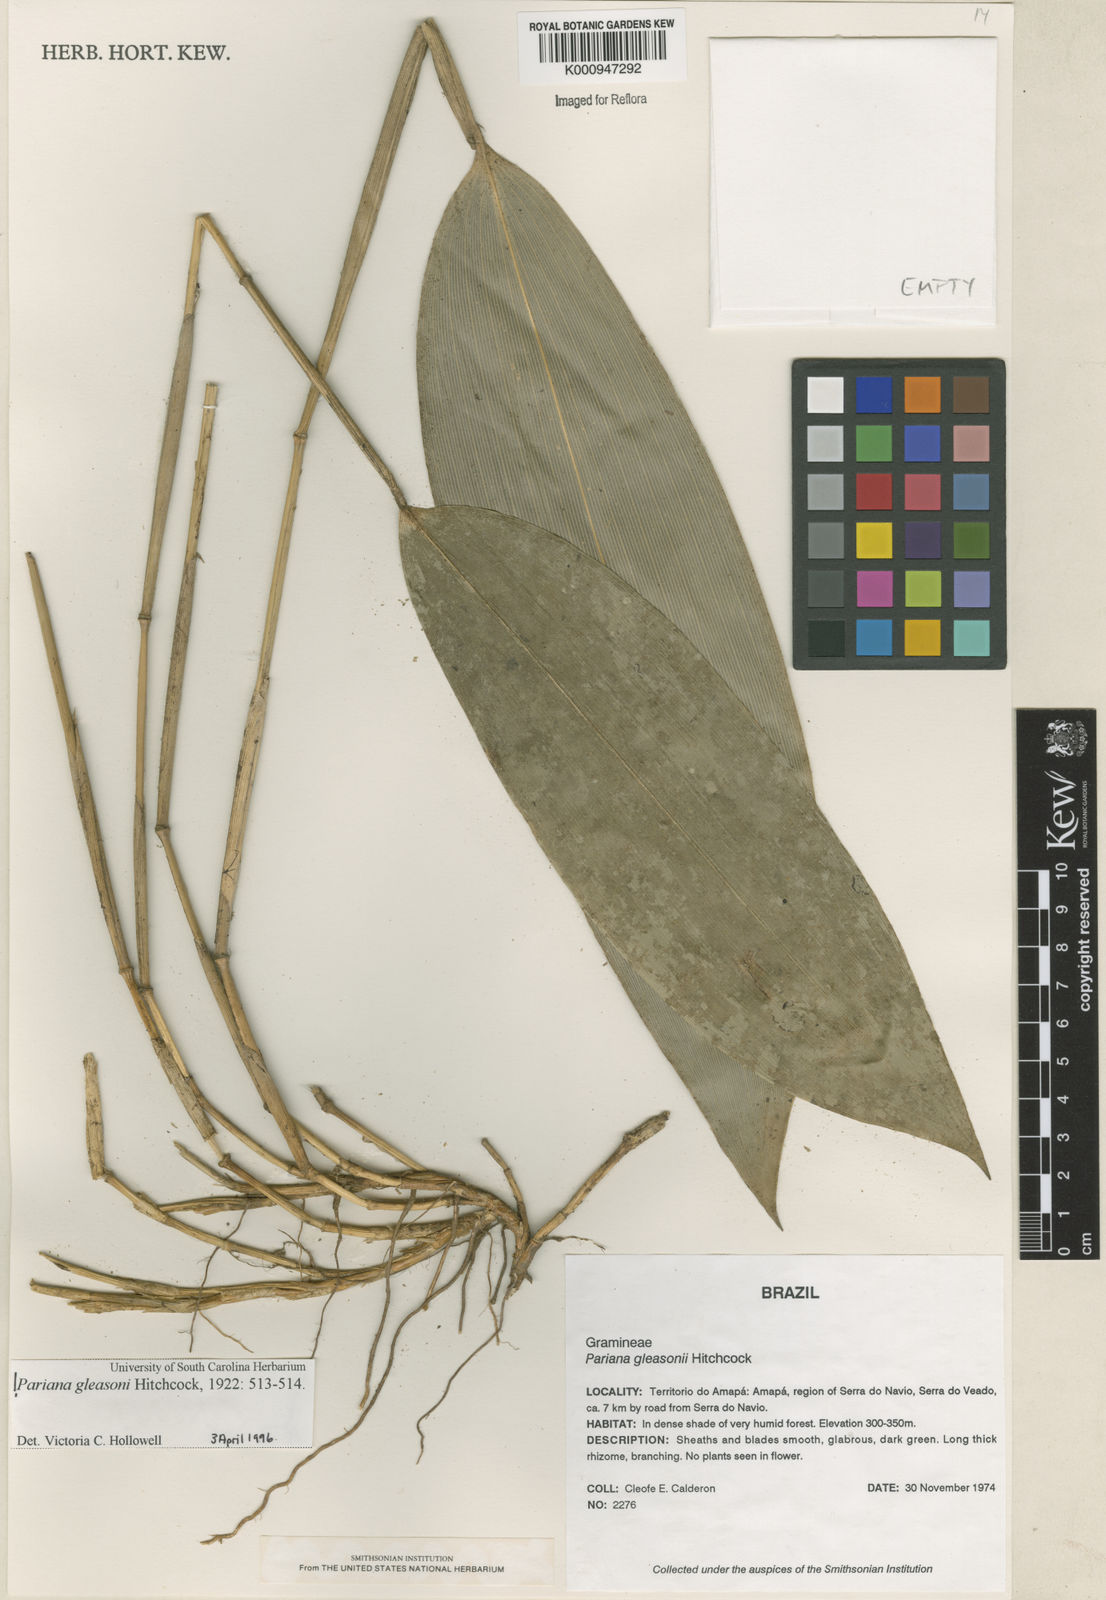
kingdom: Plantae
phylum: Tracheophyta
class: Liliopsida
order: Poales
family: Poaceae
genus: Pariana
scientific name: Pariana gleasonii
